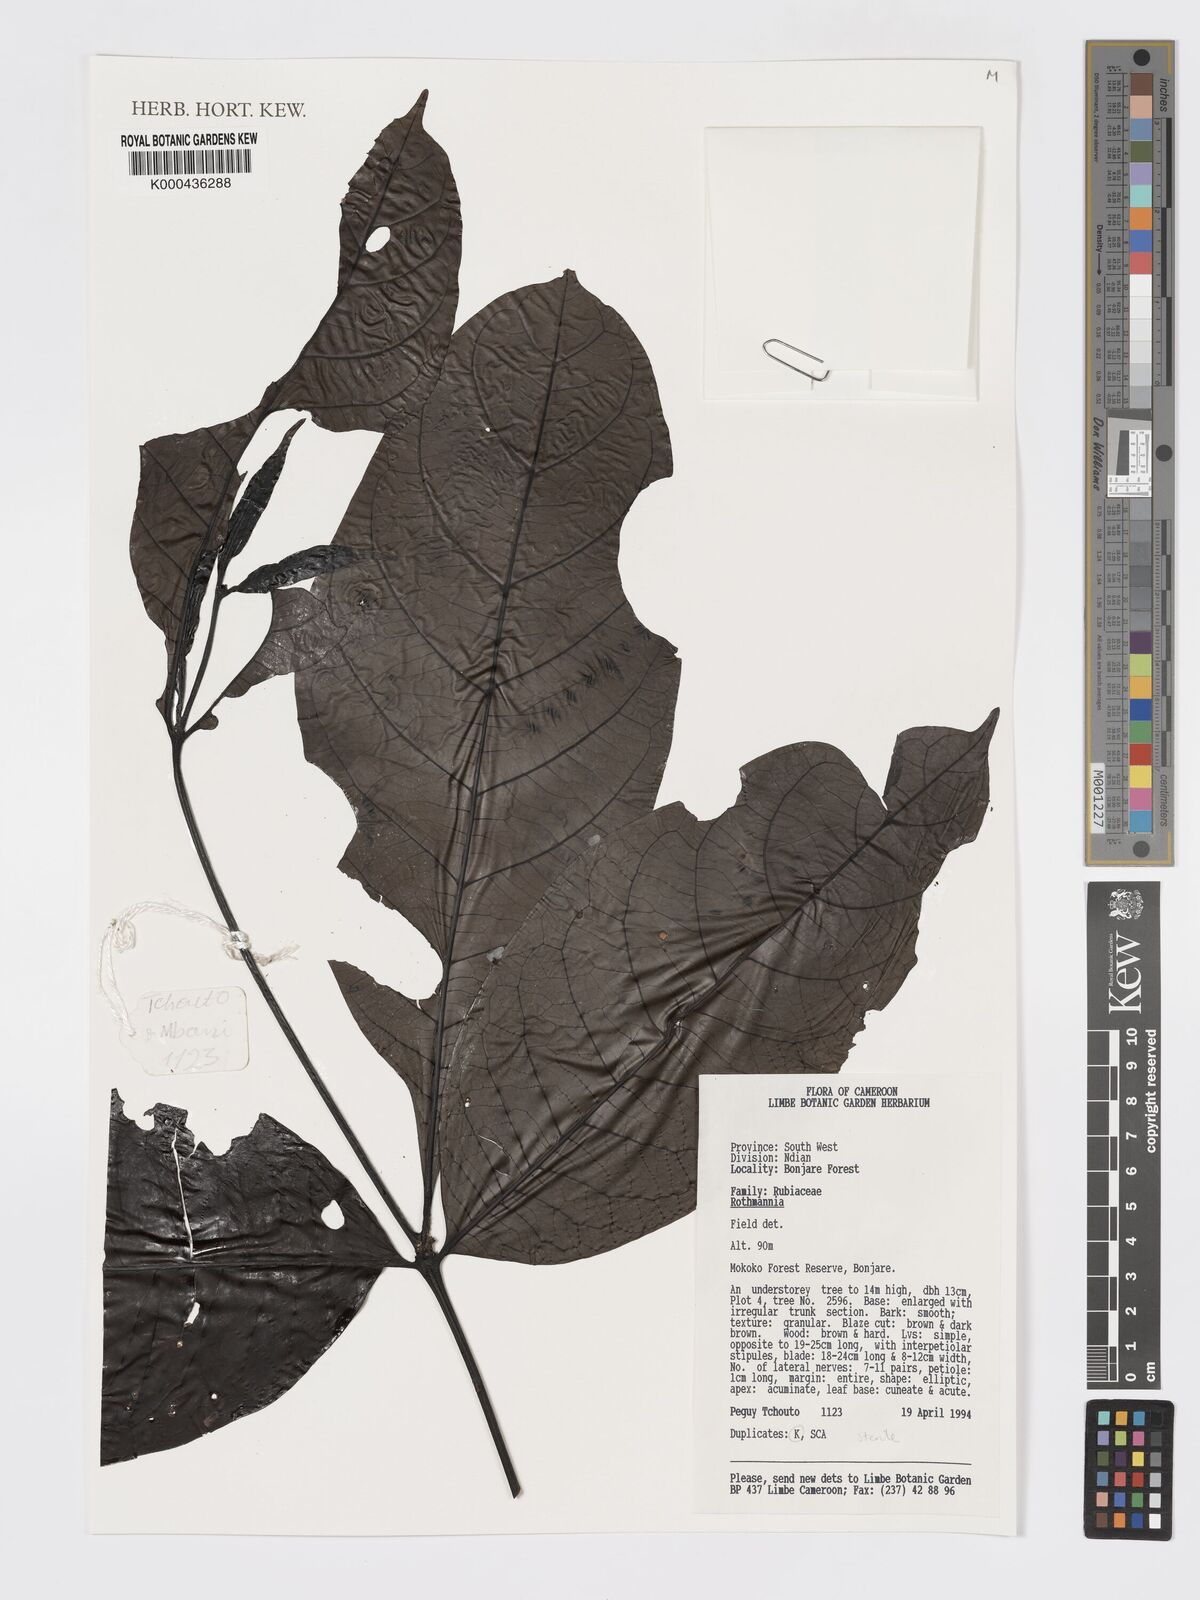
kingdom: Plantae
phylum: Tracheophyta
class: Magnoliopsida
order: Gentianales
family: Rubiaceae
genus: Rothmannia
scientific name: Rothmannia
